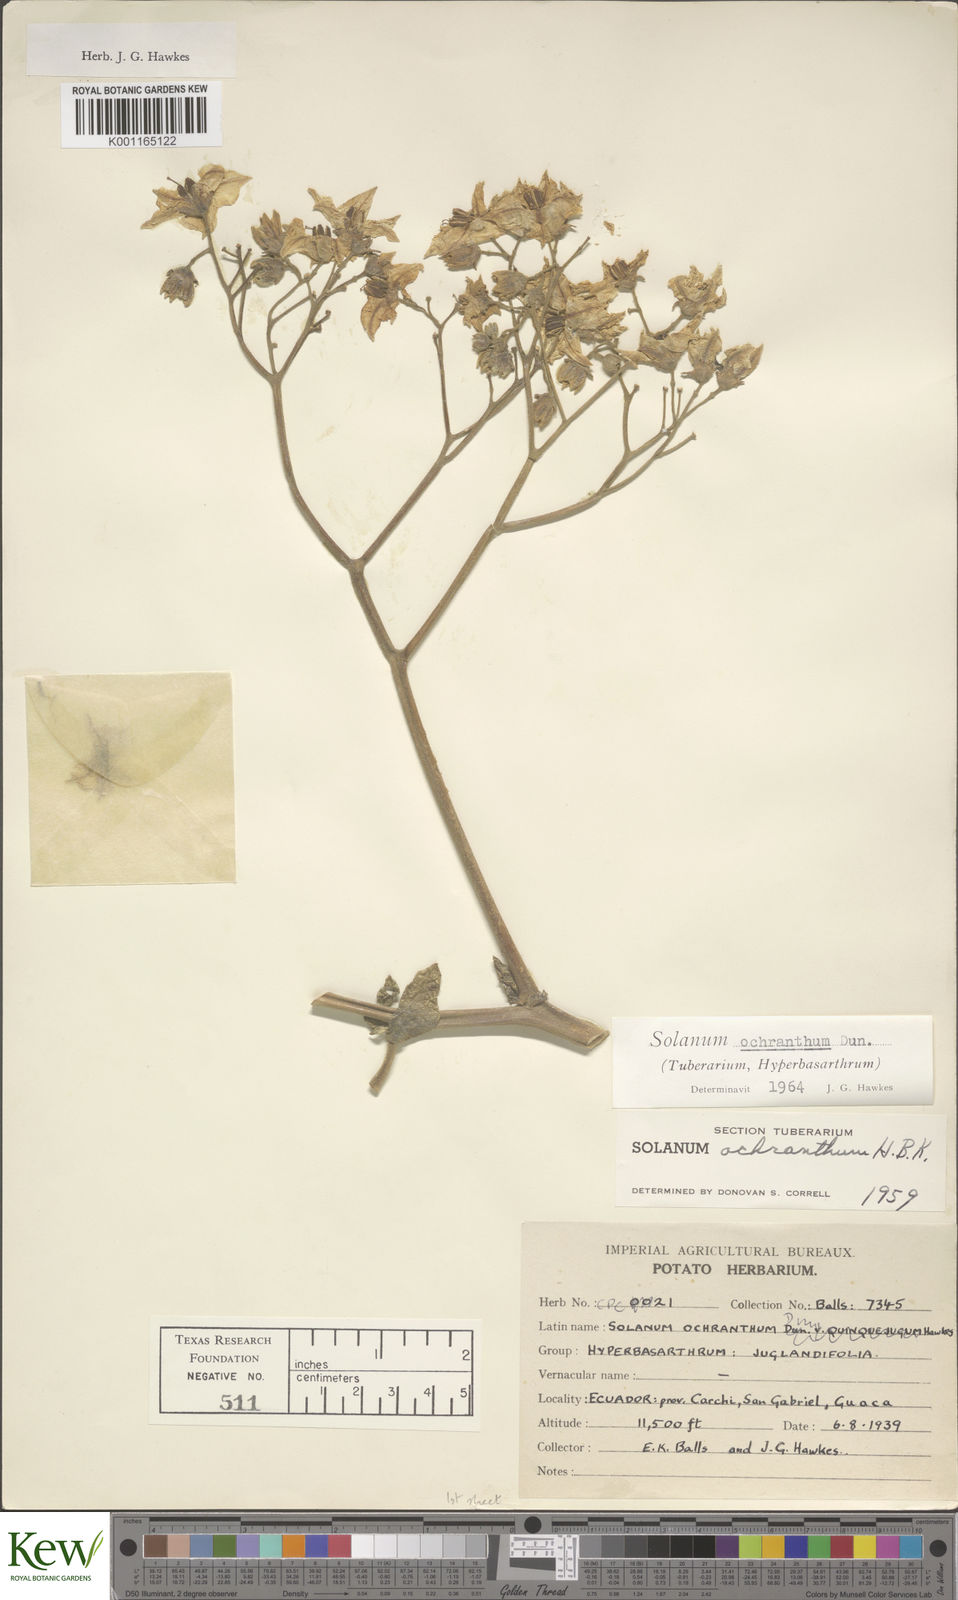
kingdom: Plantae
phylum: Tracheophyta
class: Magnoliopsida
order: Solanales
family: Solanaceae
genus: Solanum
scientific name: Solanum ochranthum
